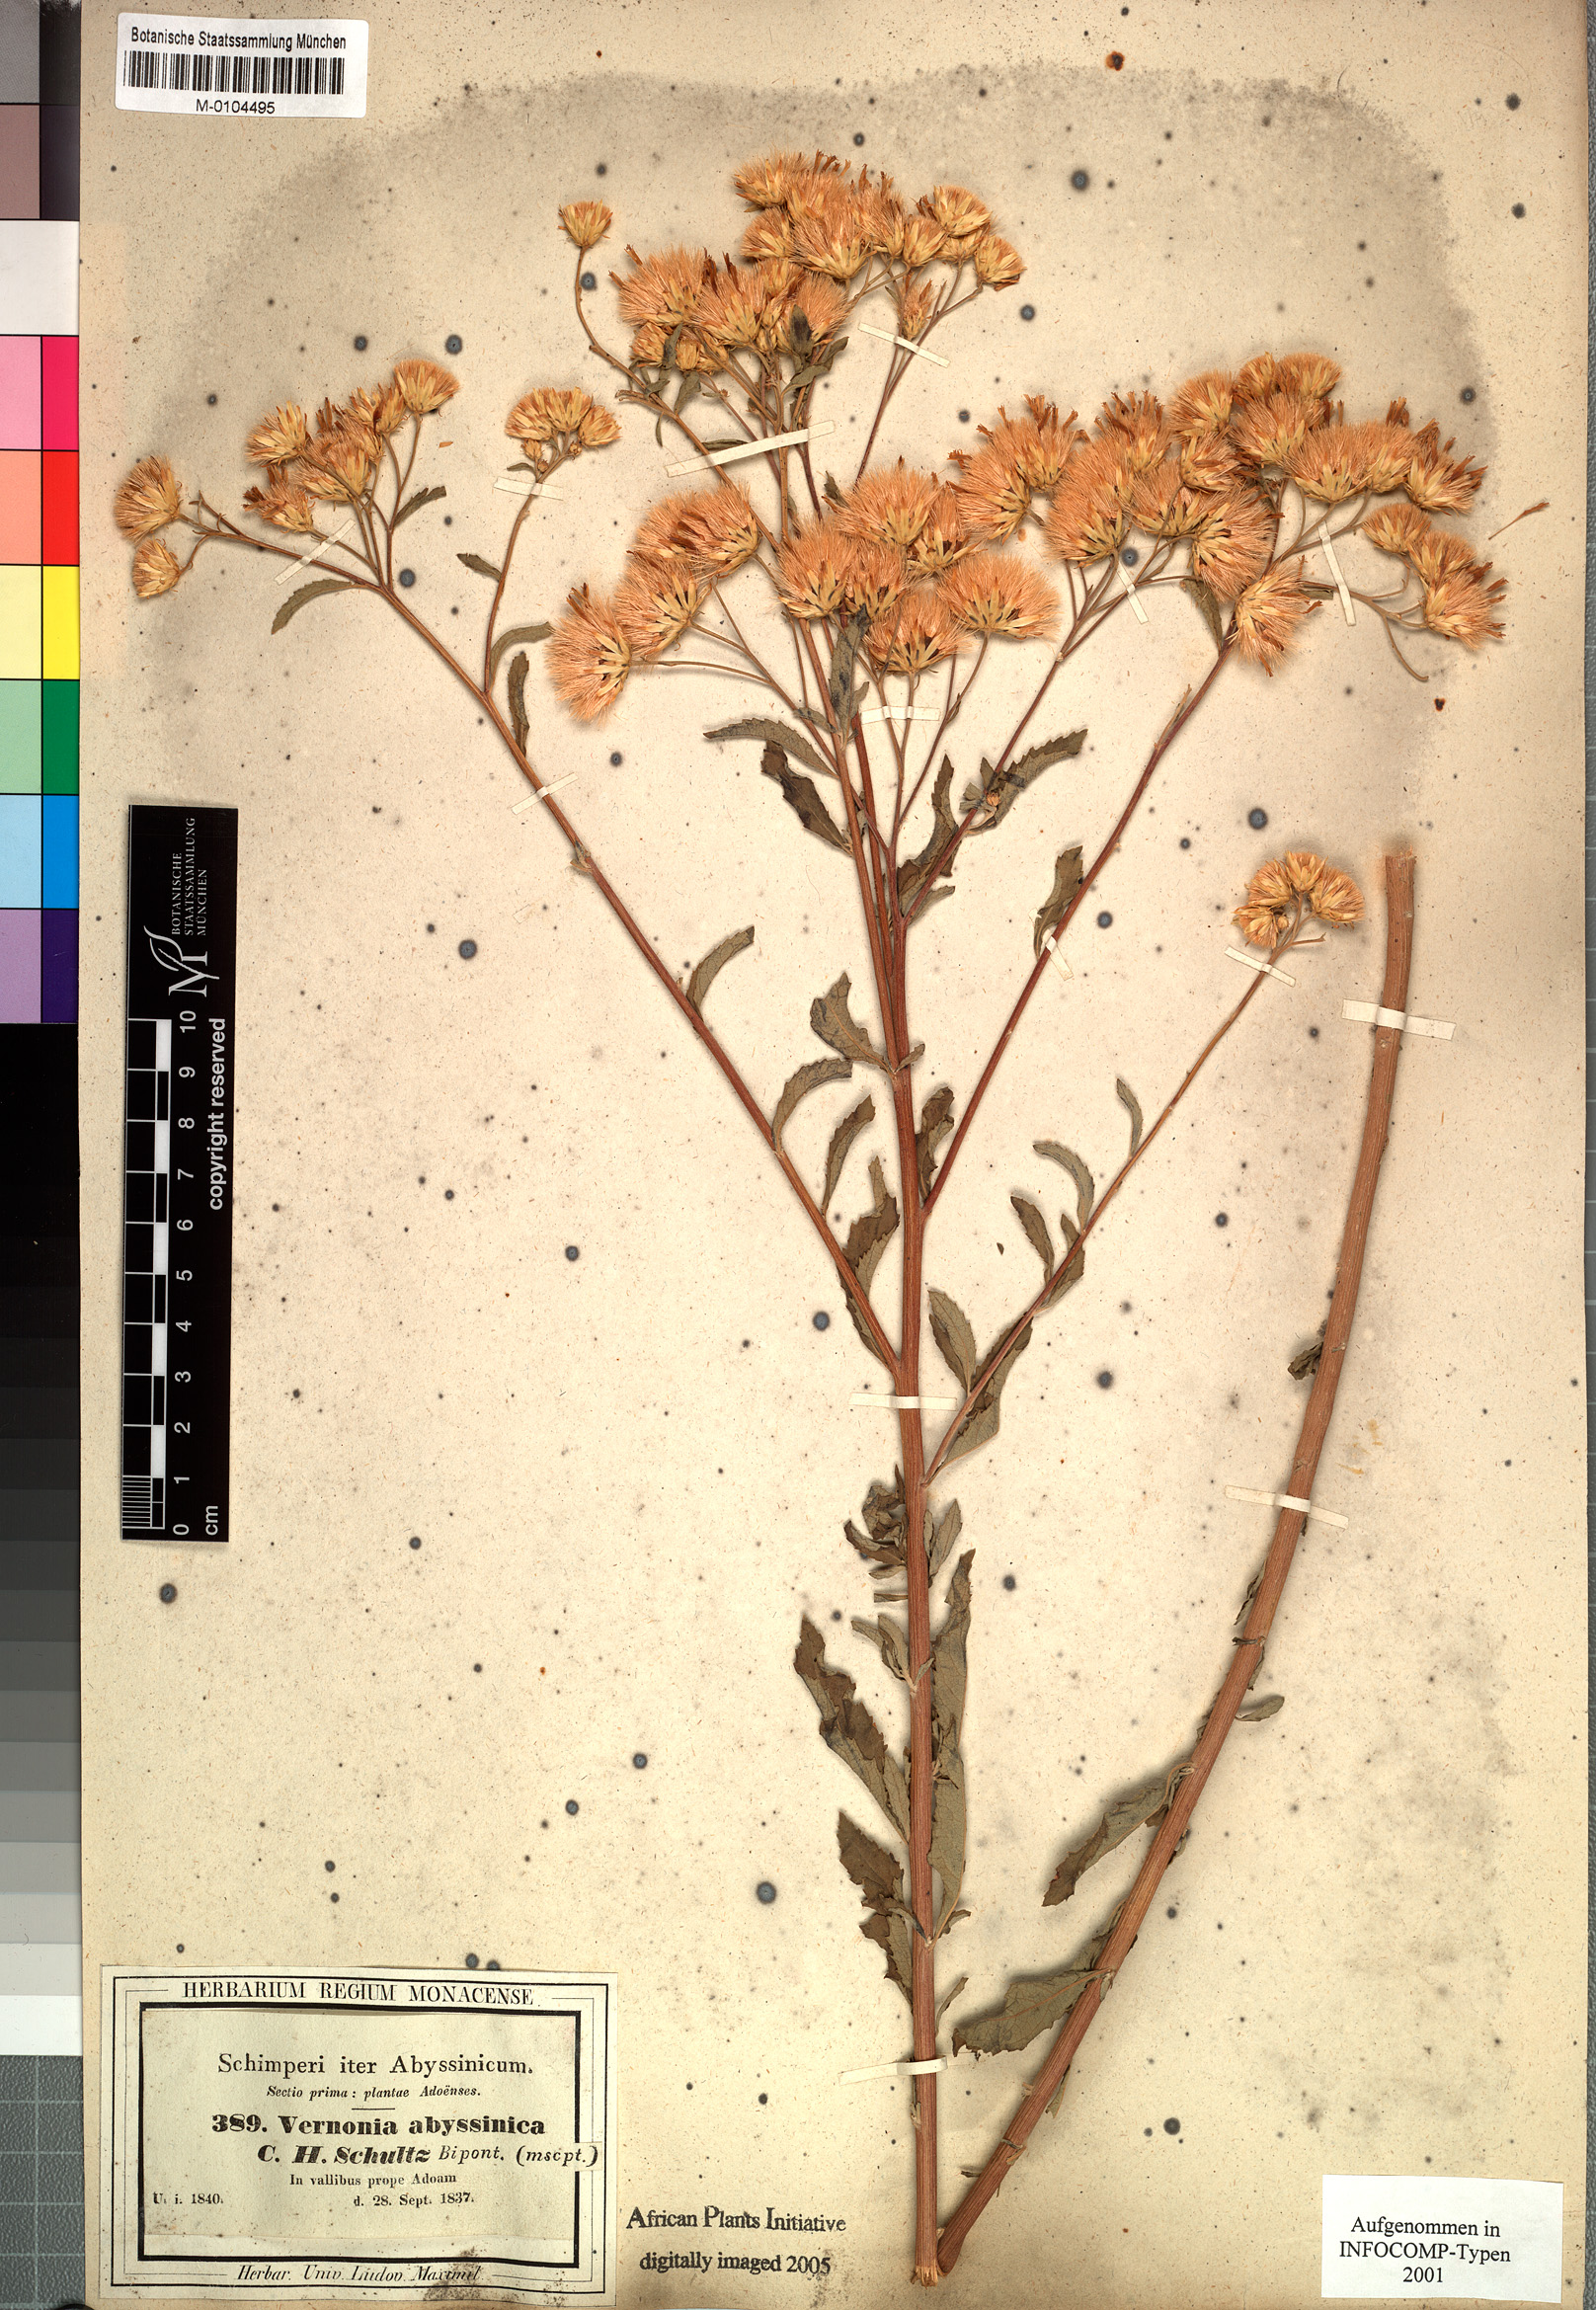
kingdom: Plantae
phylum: Tracheophyta
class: Magnoliopsida
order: Asterales
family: Asteraceae
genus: Baccharoides
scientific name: Baccharoides schimperi
